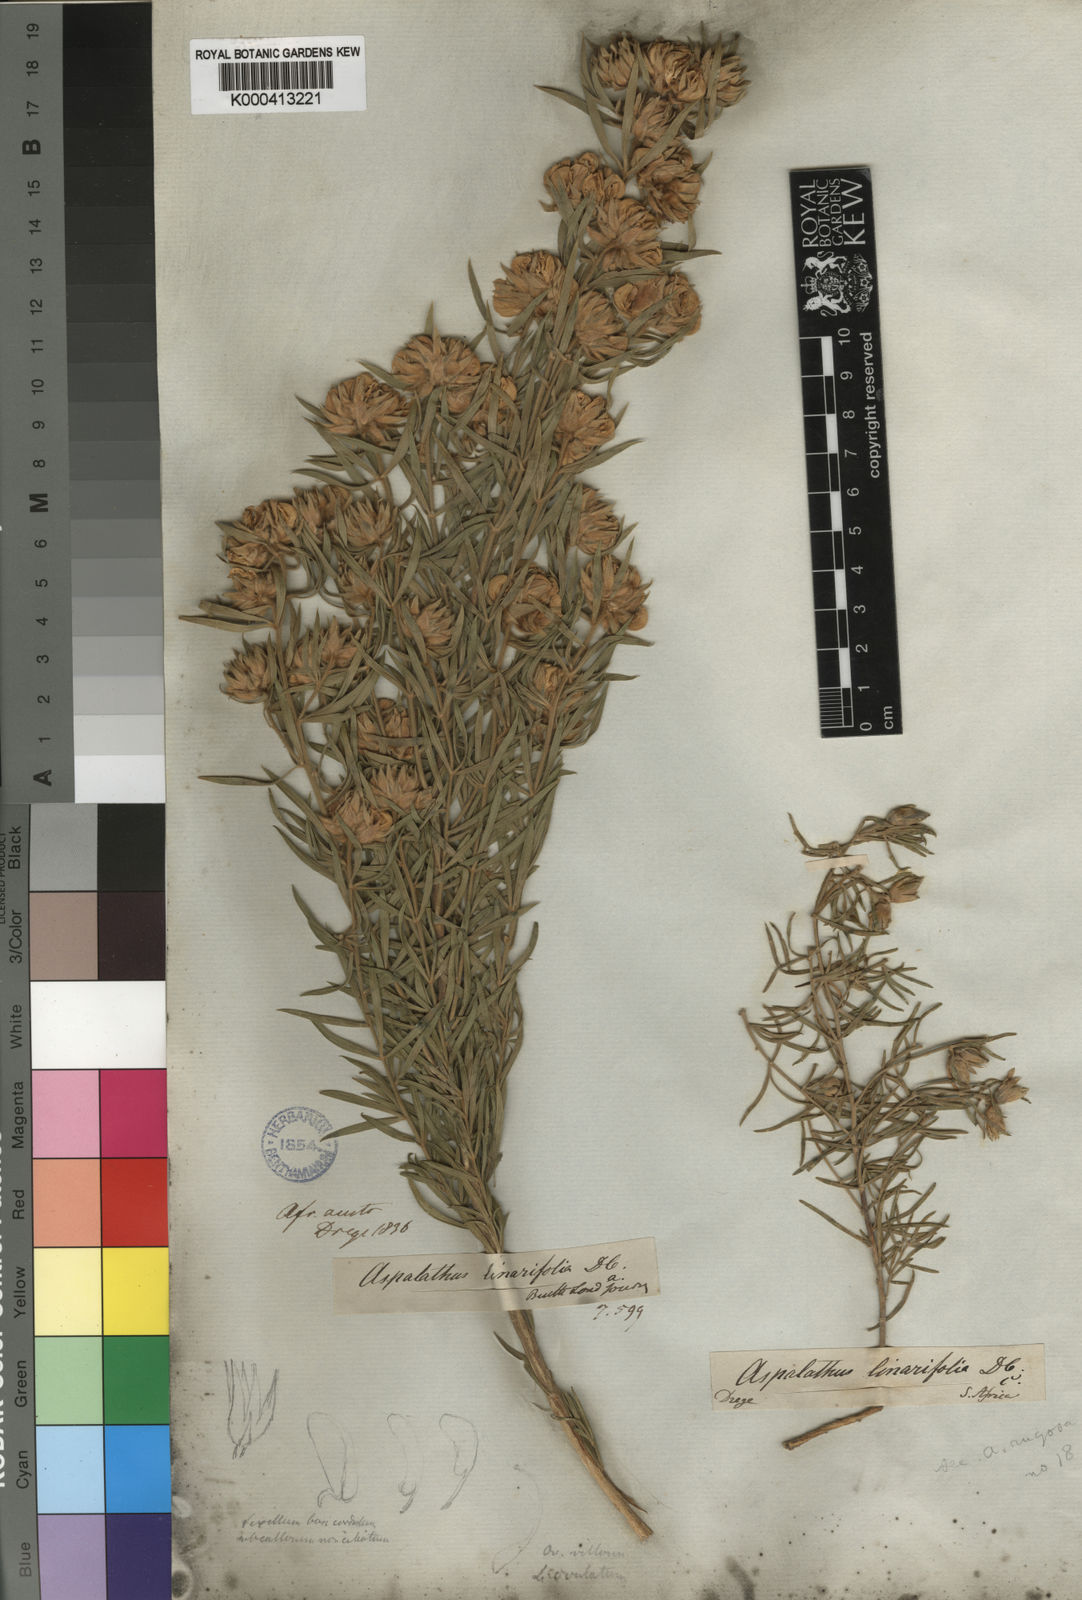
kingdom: Plantae
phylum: Tracheophyta
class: Magnoliopsida
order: Fabales
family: Fabaceae
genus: Aspalathus
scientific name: Aspalathus rugosa
